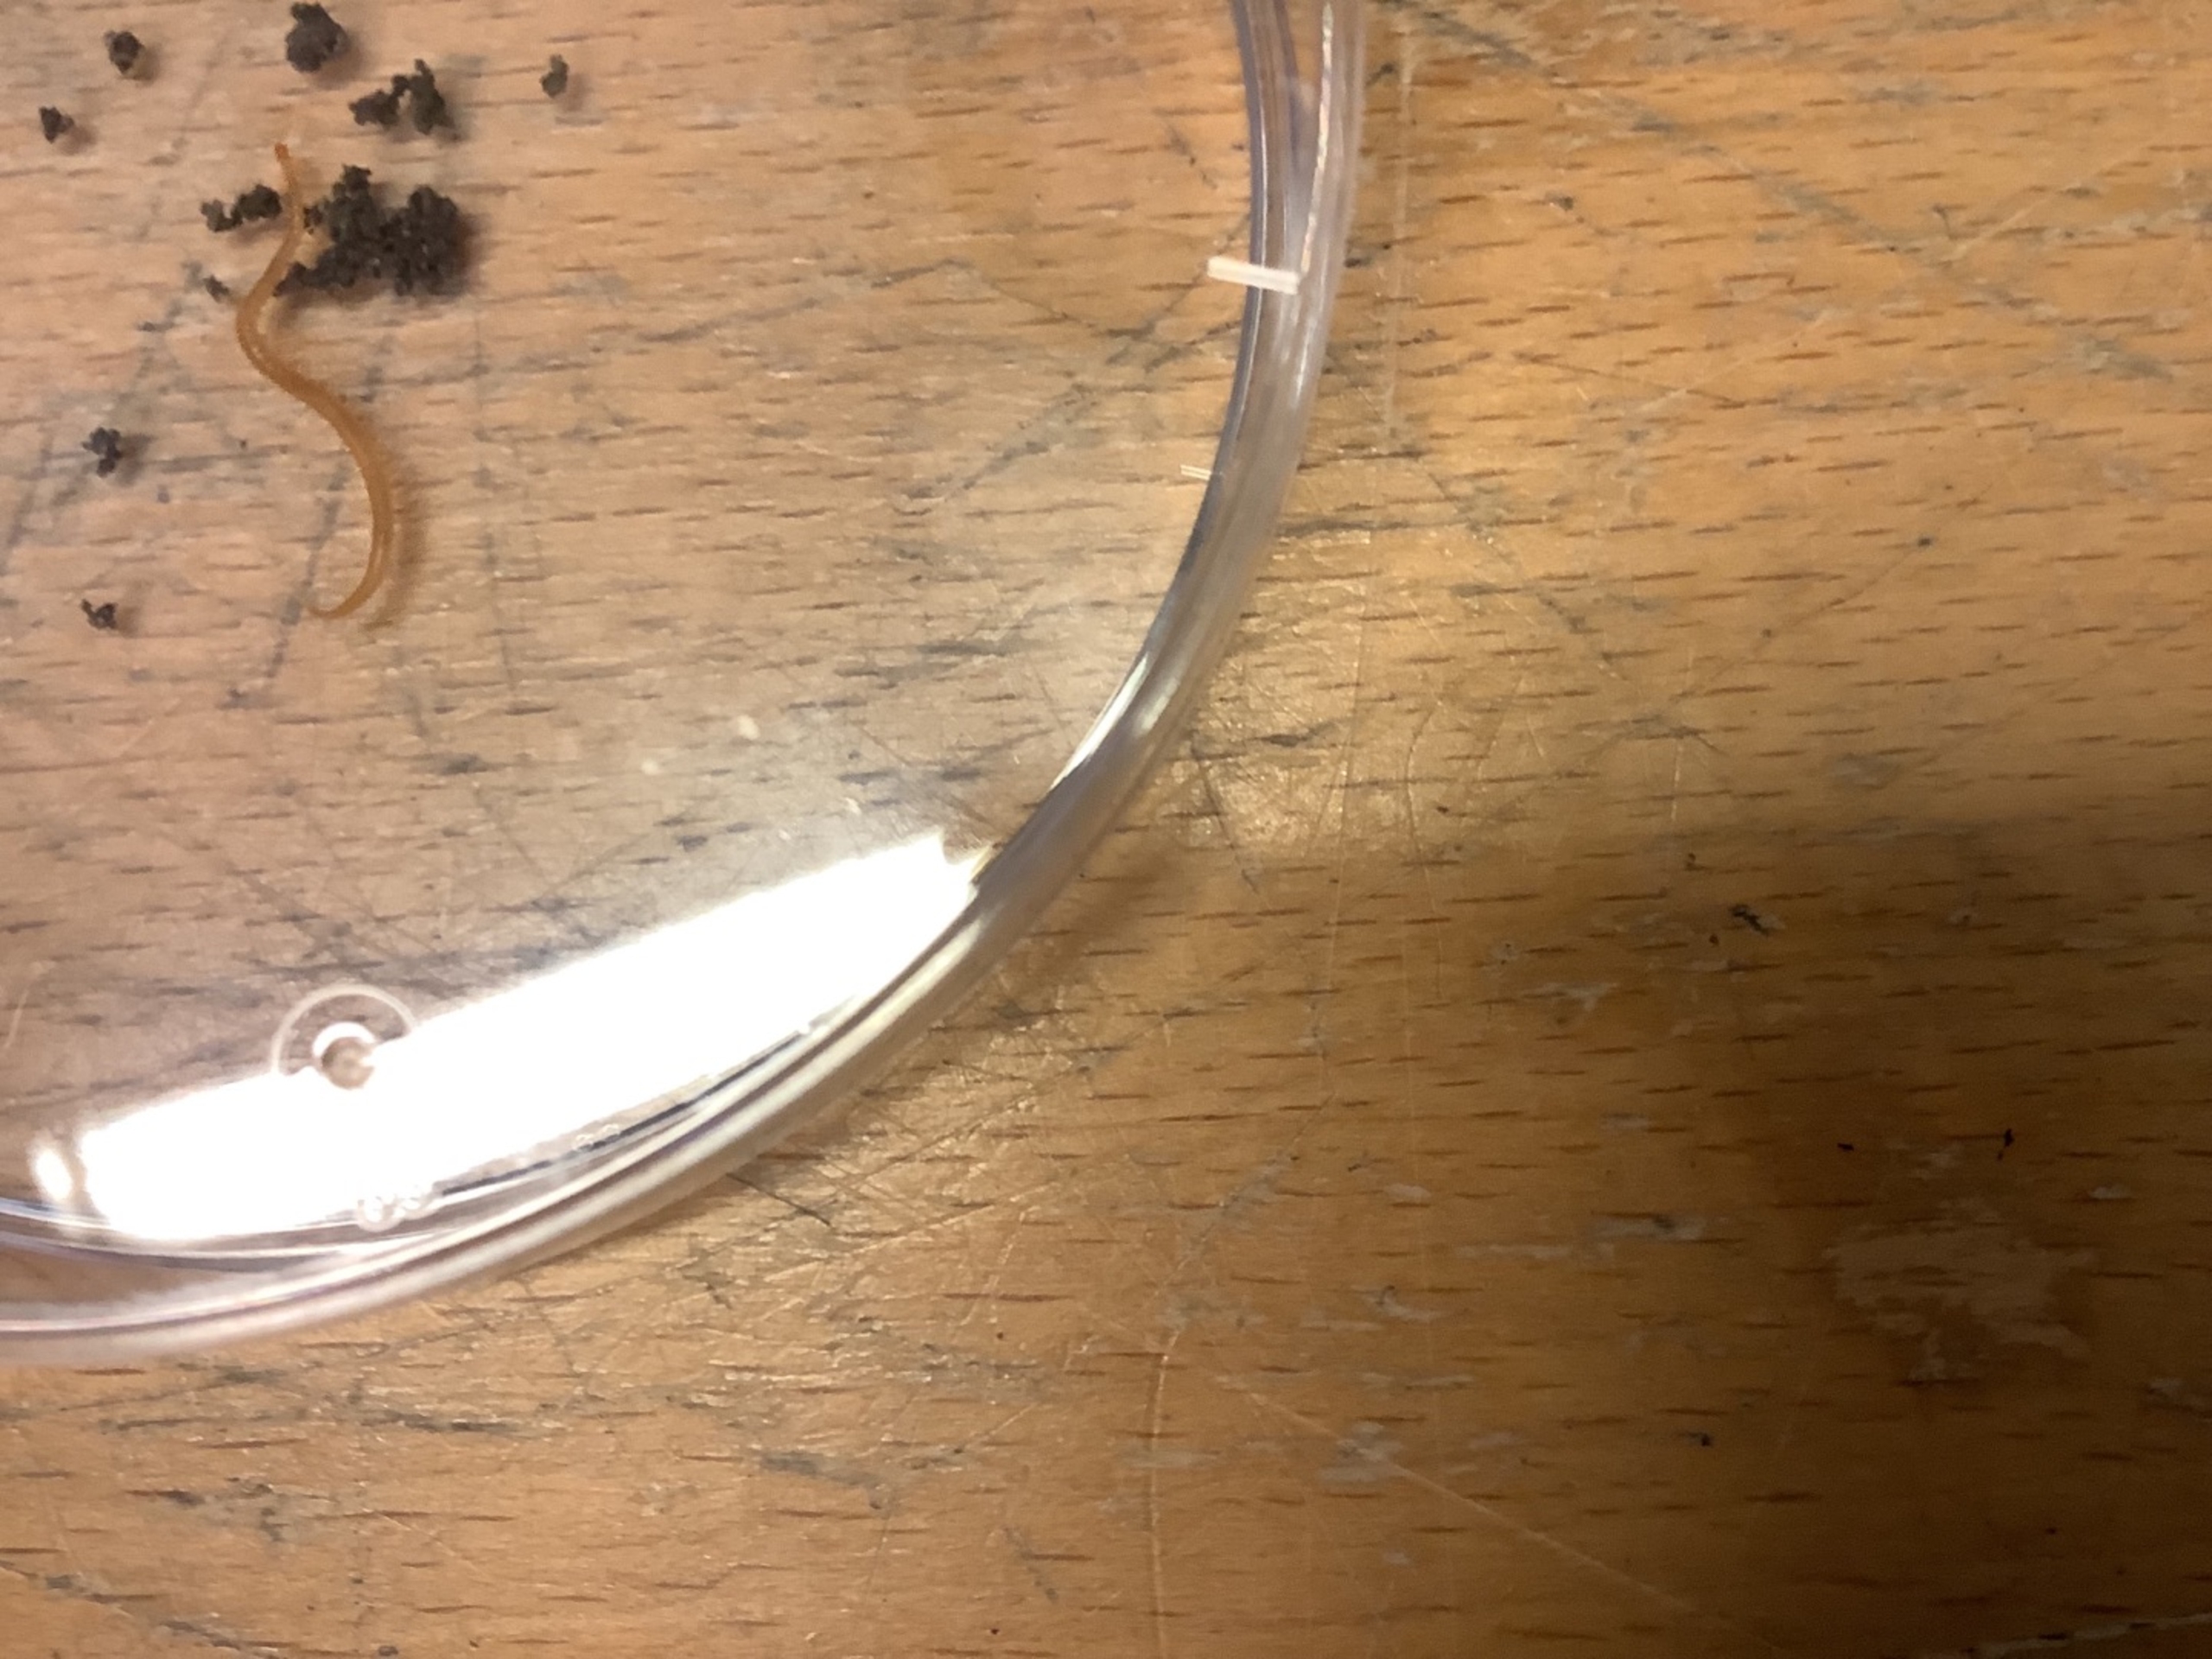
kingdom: Animalia
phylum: Arthropoda
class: Chilopoda
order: Geophilomorpha
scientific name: Geophilomorpha
